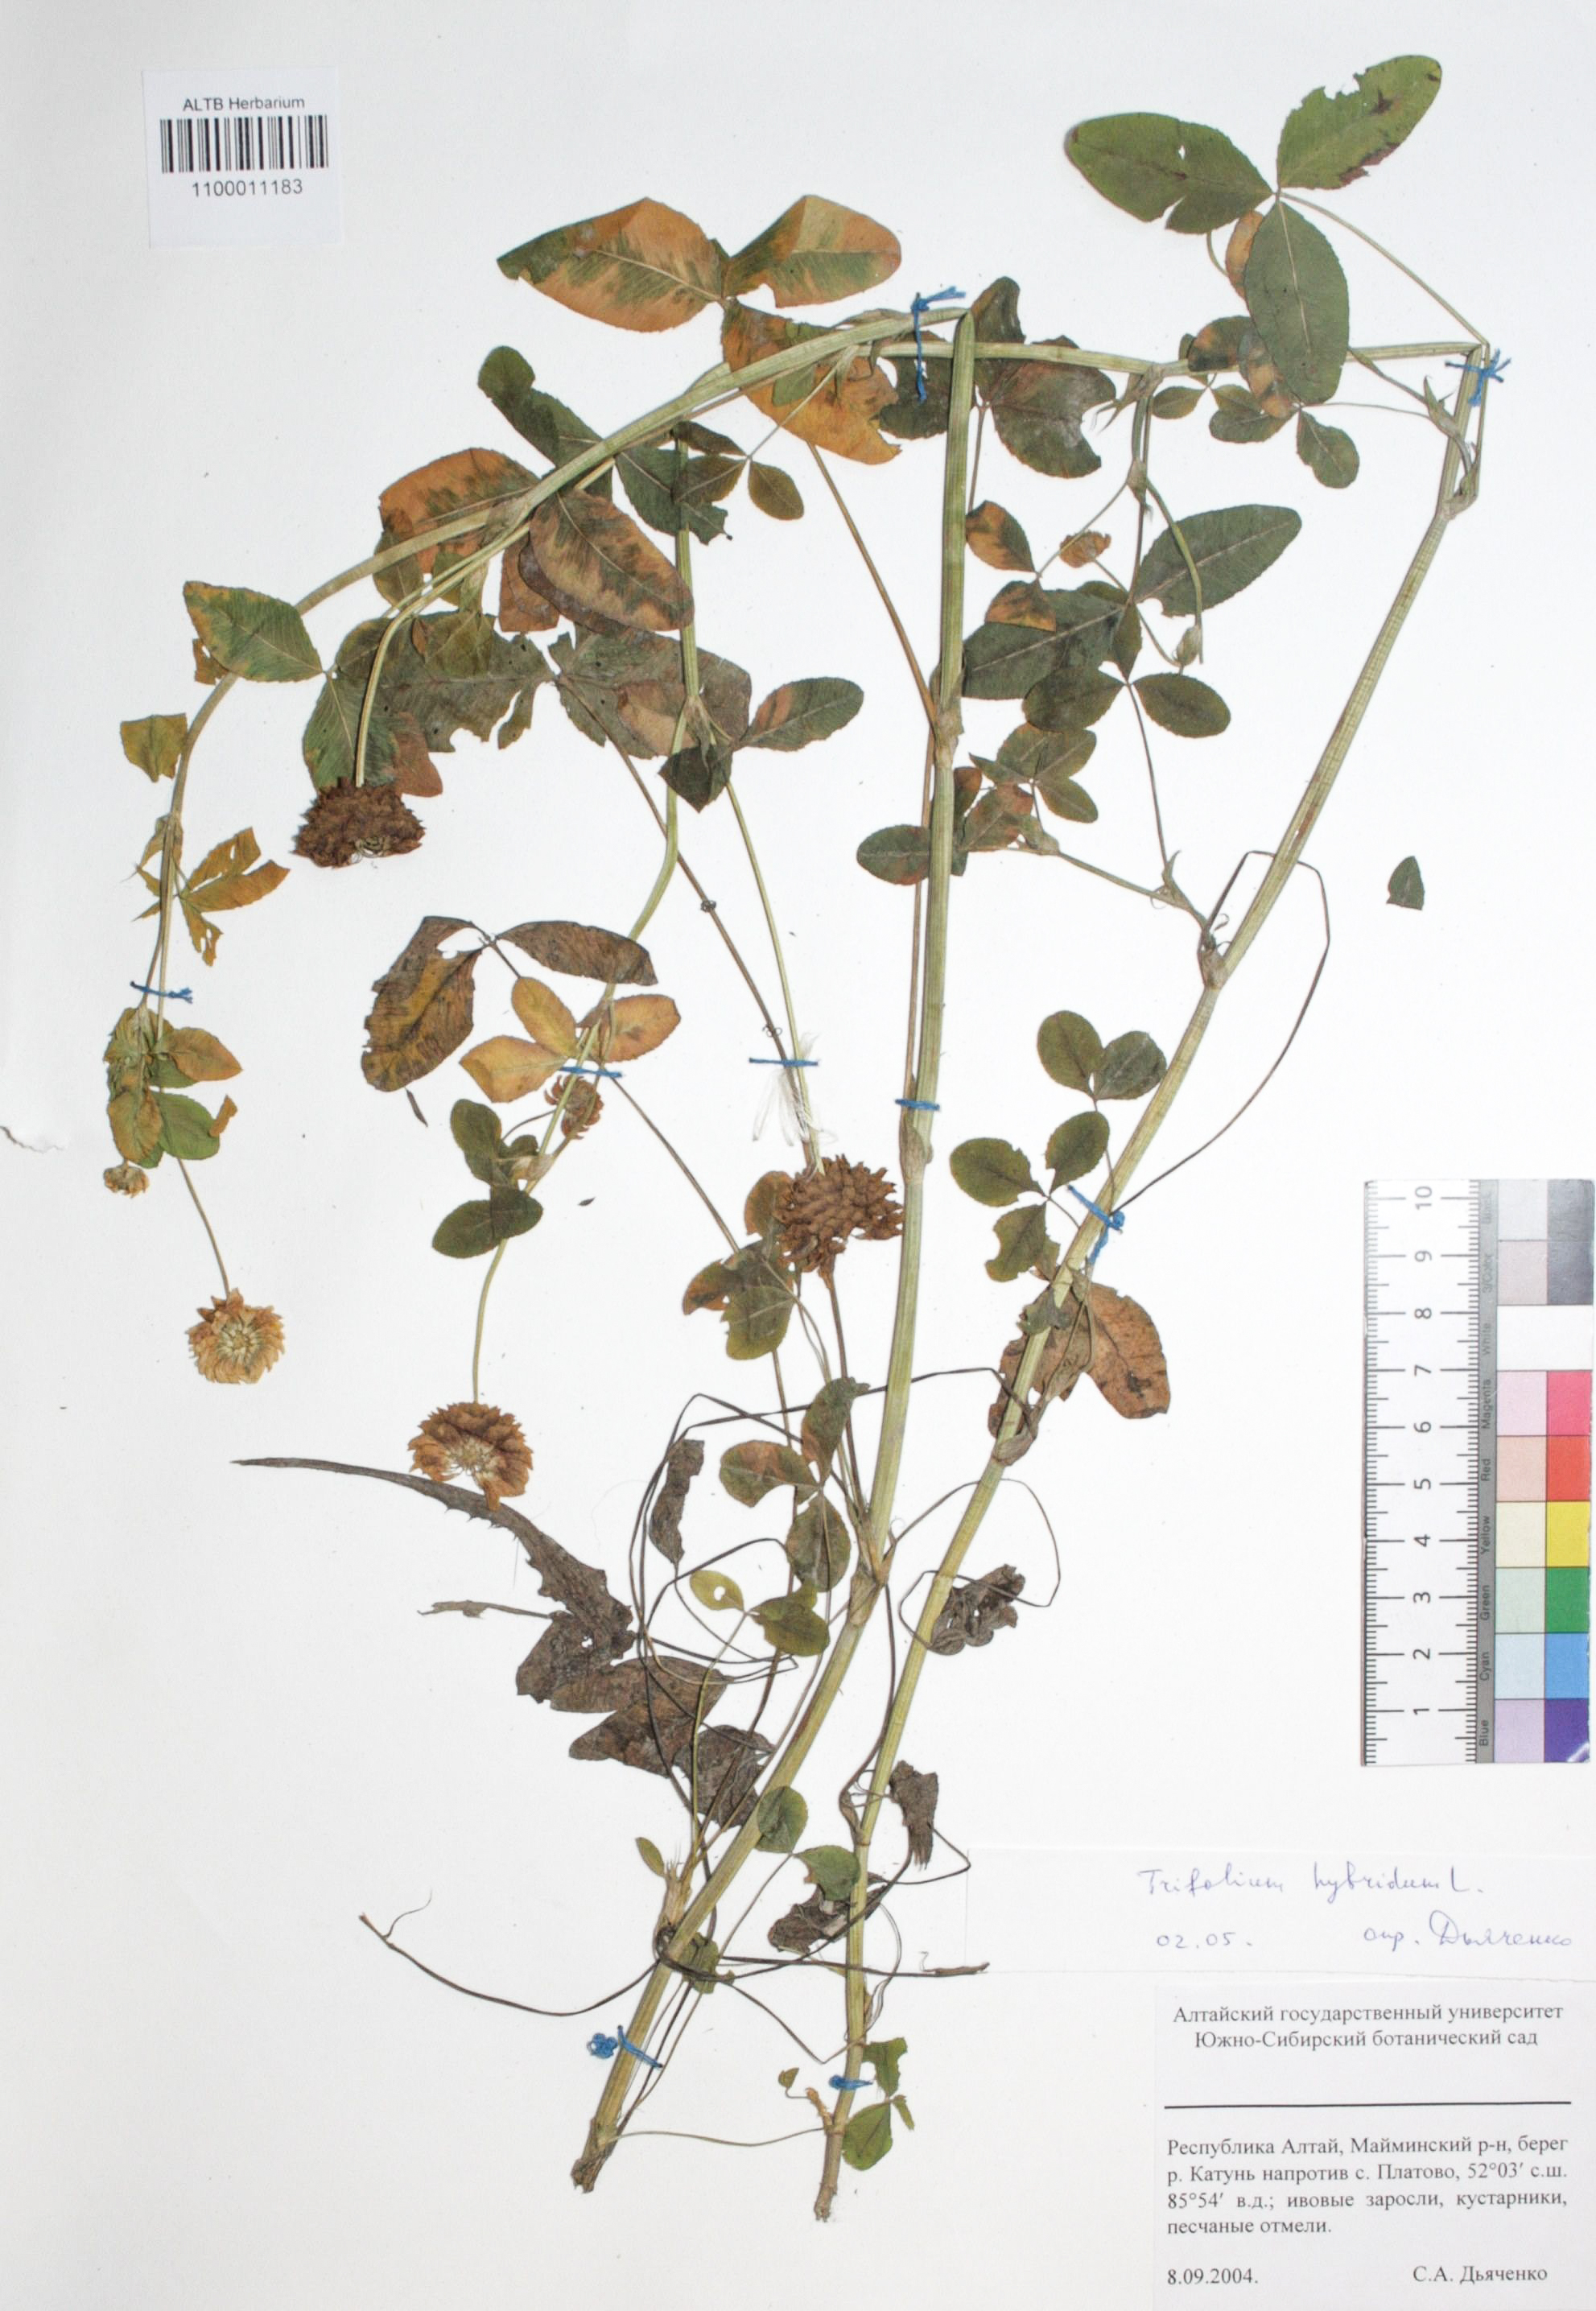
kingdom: Plantae
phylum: Tracheophyta
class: Magnoliopsida
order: Fabales
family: Fabaceae
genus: Trifolium
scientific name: Trifolium hybridum
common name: Alsike clover
